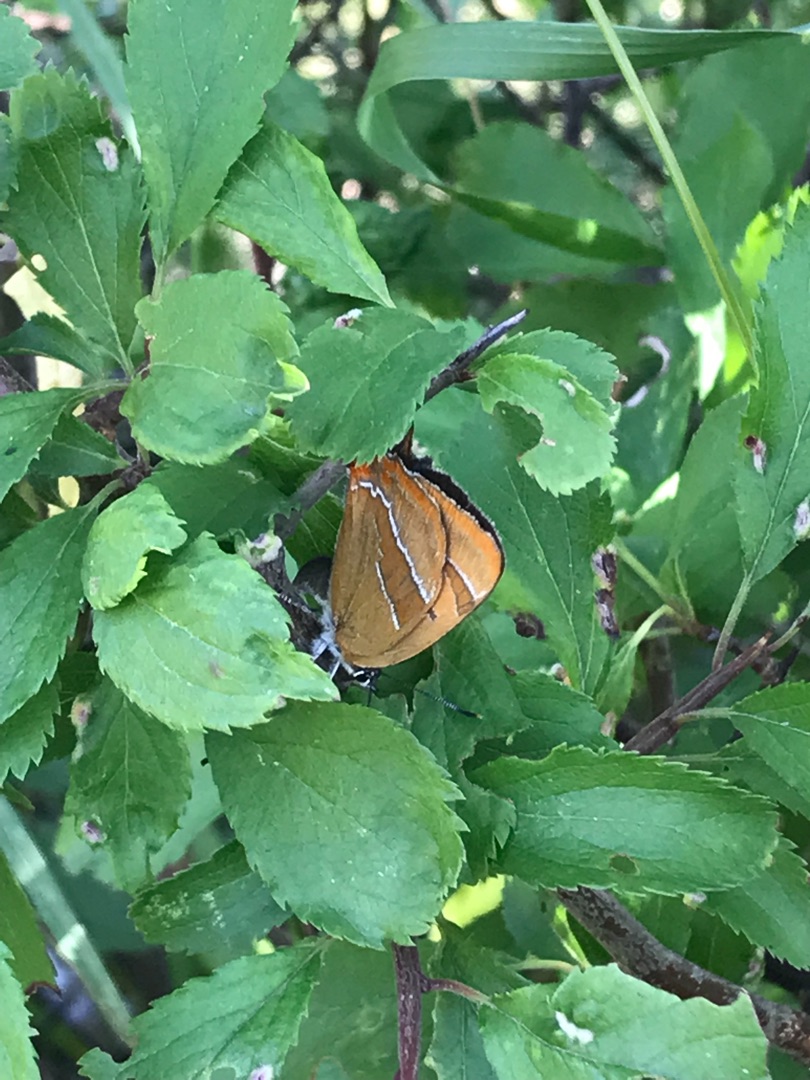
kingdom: Animalia
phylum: Arthropoda
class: Insecta
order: Lepidoptera
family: Lycaenidae
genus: Thecla
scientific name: Thecla betulae
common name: Guldhale
